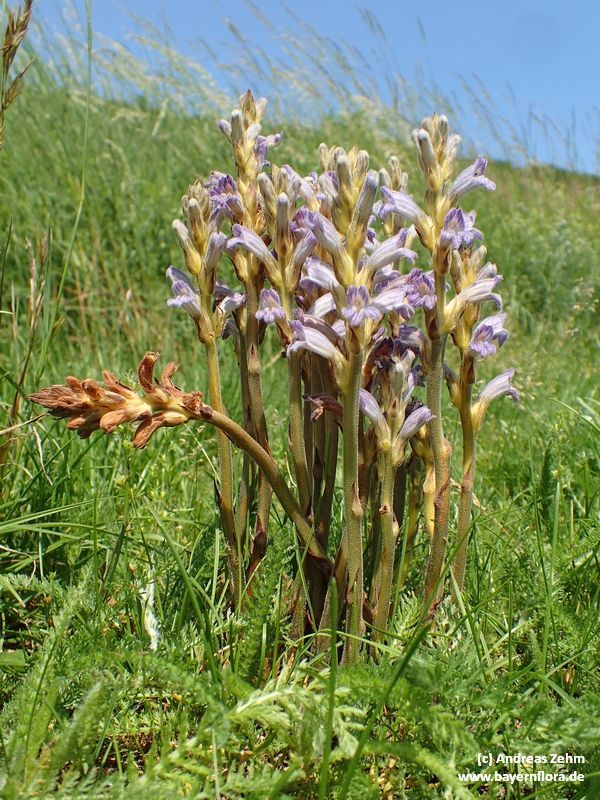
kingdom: Plantae
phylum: Tracheophyta
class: Magnoliopsida
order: Lamiales
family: Orobanchaceae
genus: Phelipanche
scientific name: Phelipanche purpurea
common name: Purple broomrape
